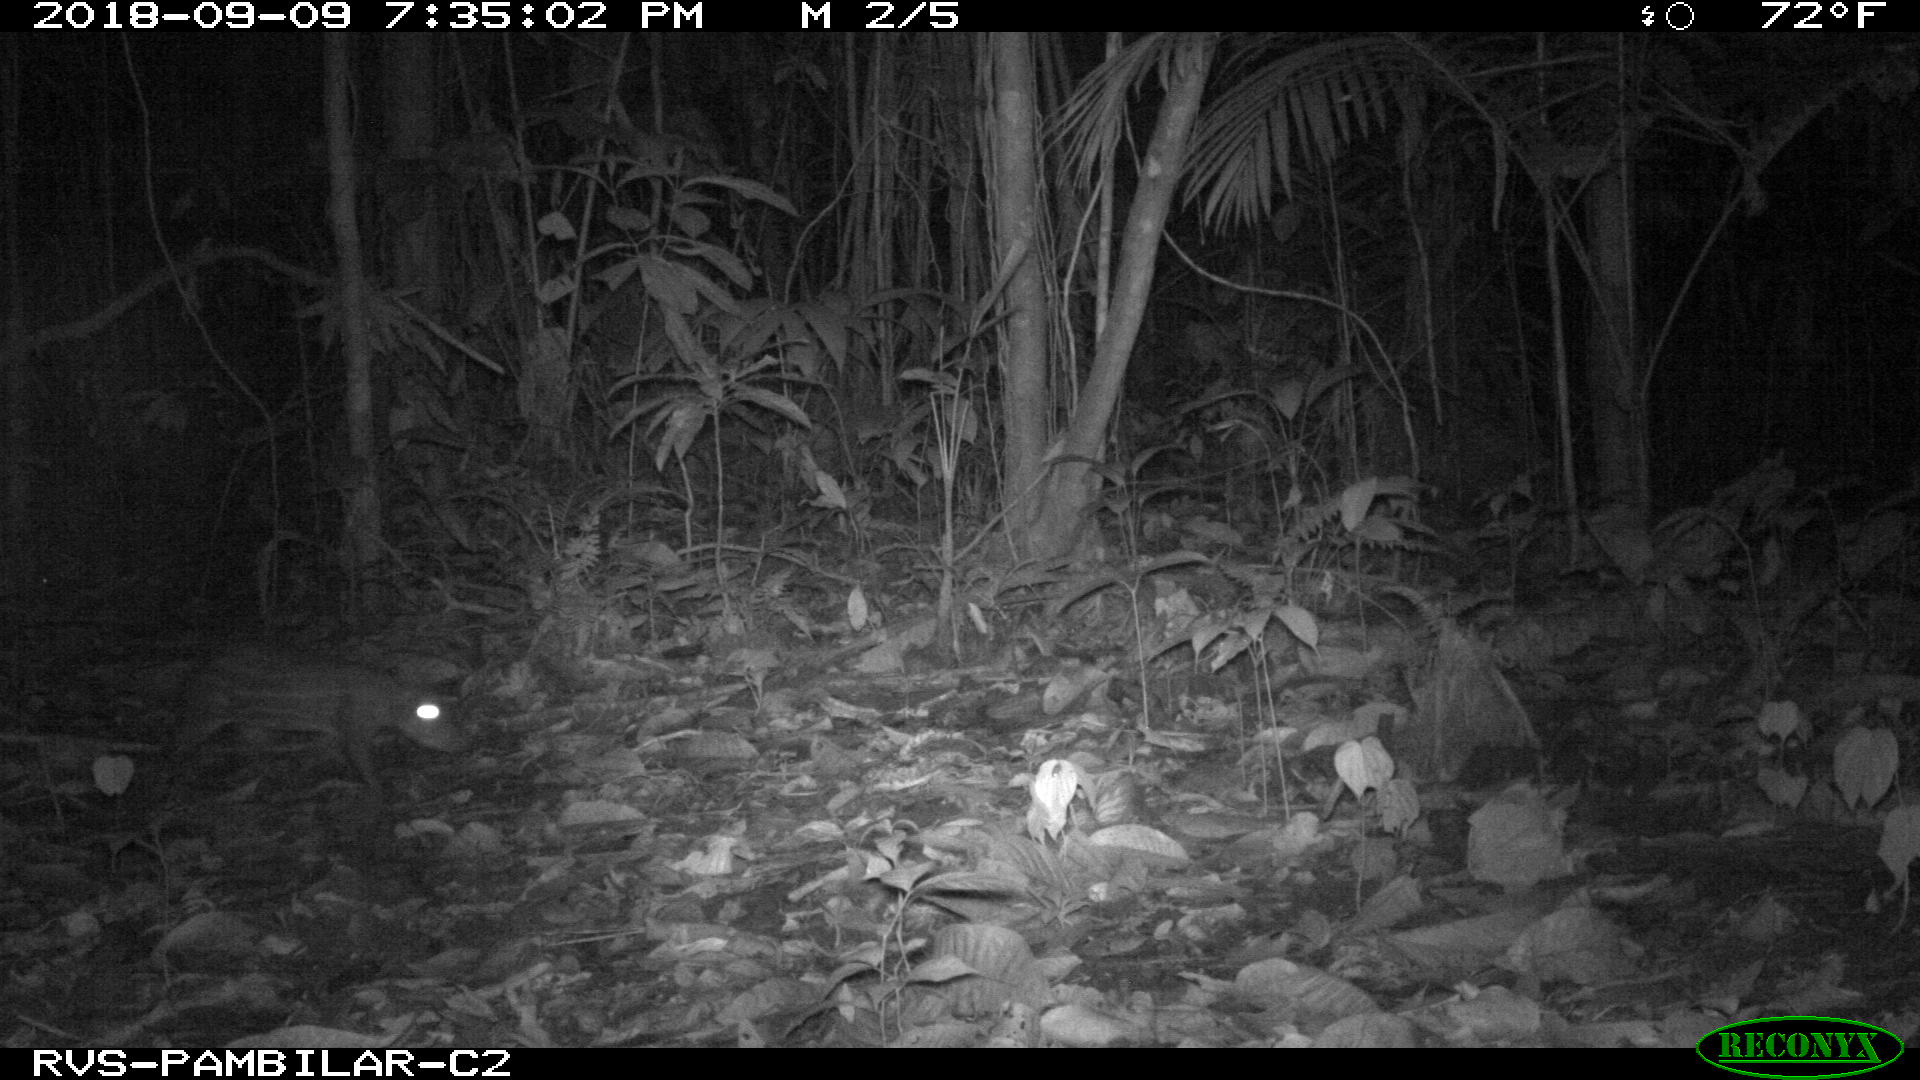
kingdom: Animalia
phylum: Chordata
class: Mammalia
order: Rodentia
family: Cuniculidae
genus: Cuniculus
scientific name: Cuniculus paca
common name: Lowland paca
